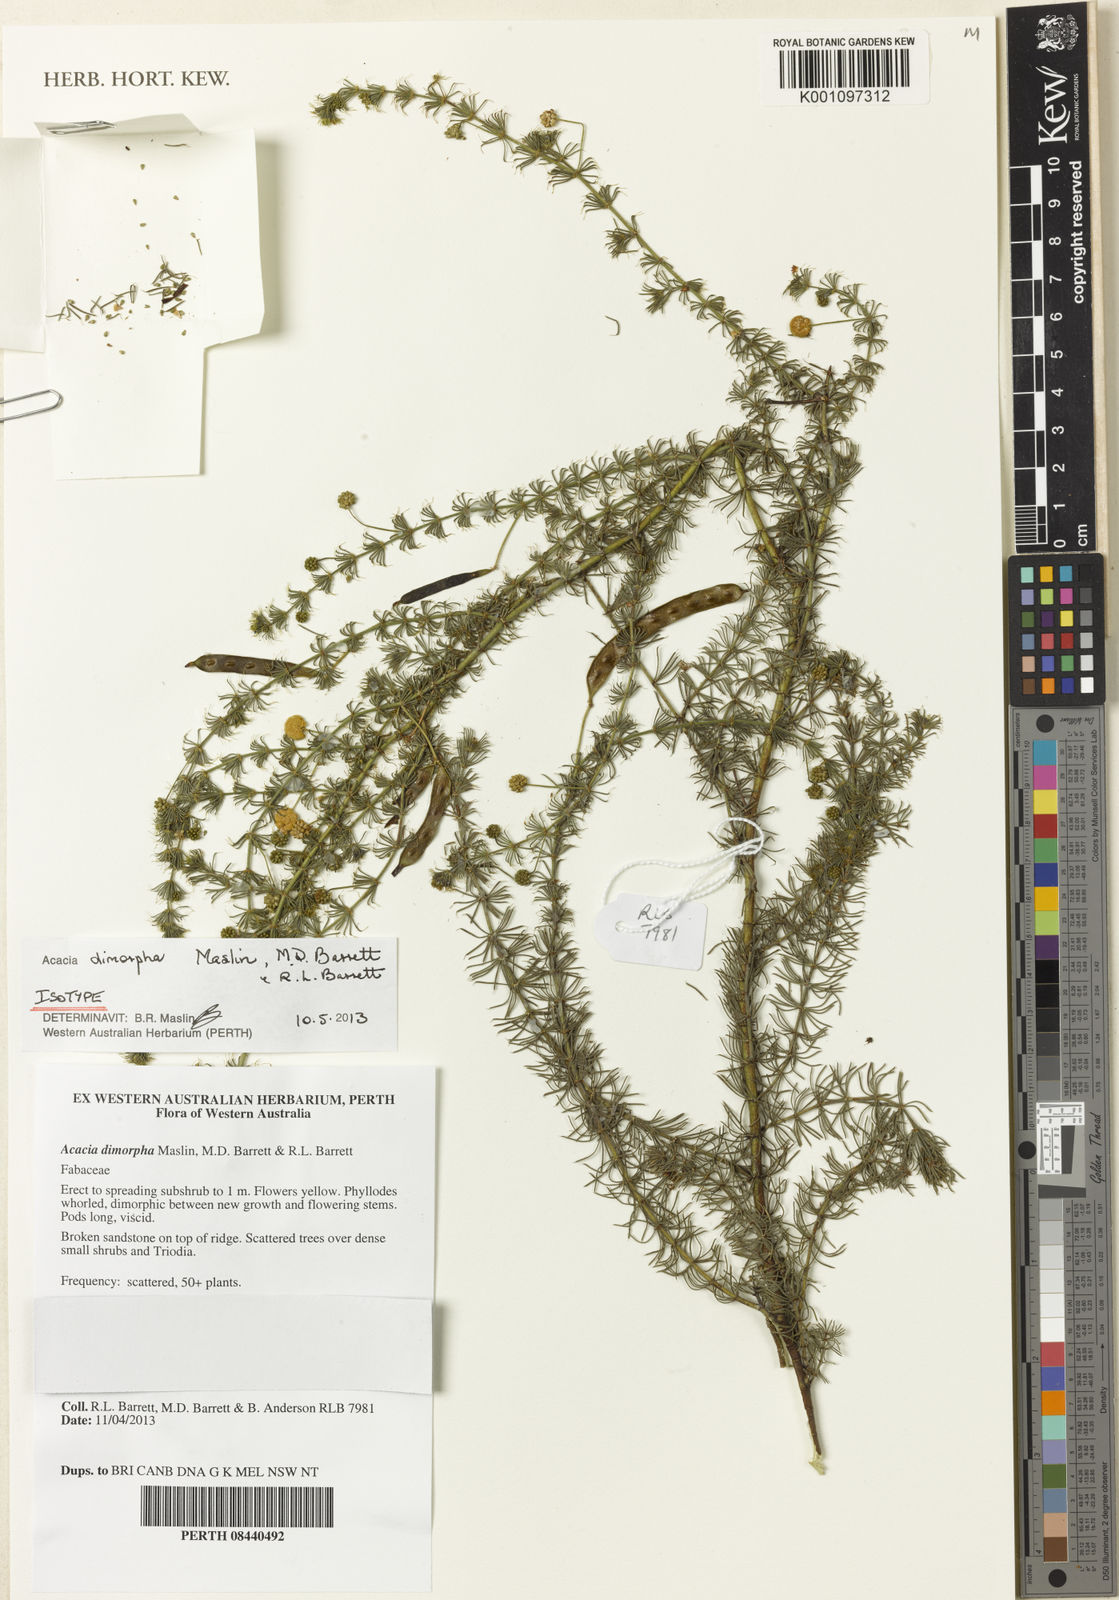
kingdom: Plantae
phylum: Tracheophyta
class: Magnoliopsida
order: Fabales
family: Fabaceae
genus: Acacia
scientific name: Acacia dimorpha
